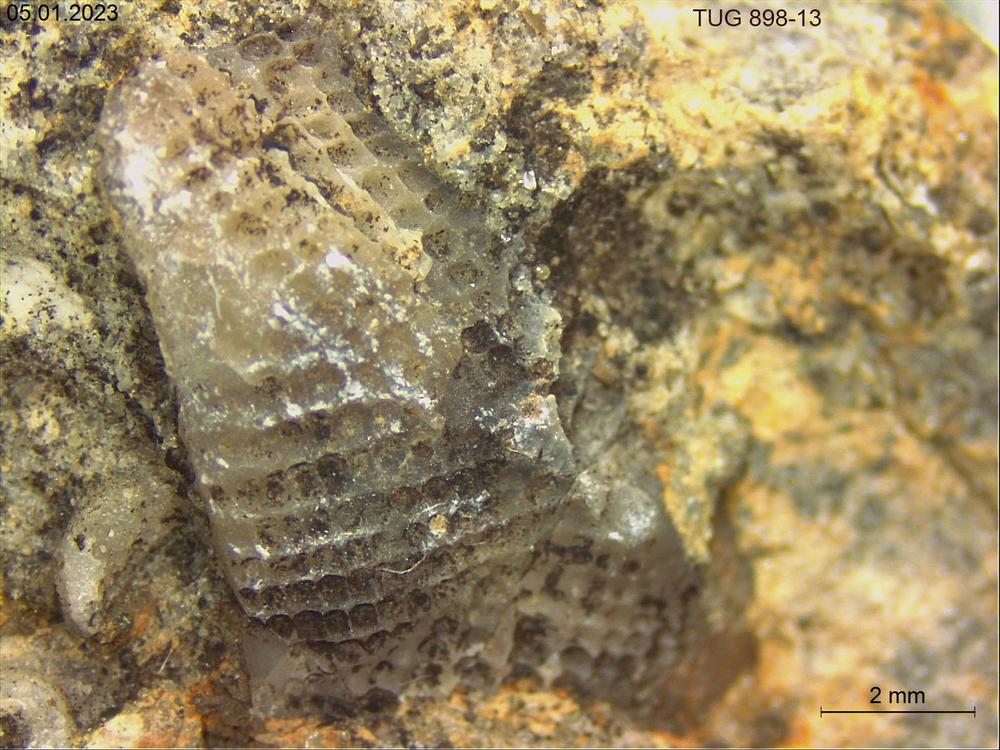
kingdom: Animalia
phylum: Echinodermata
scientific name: Echinodermata
